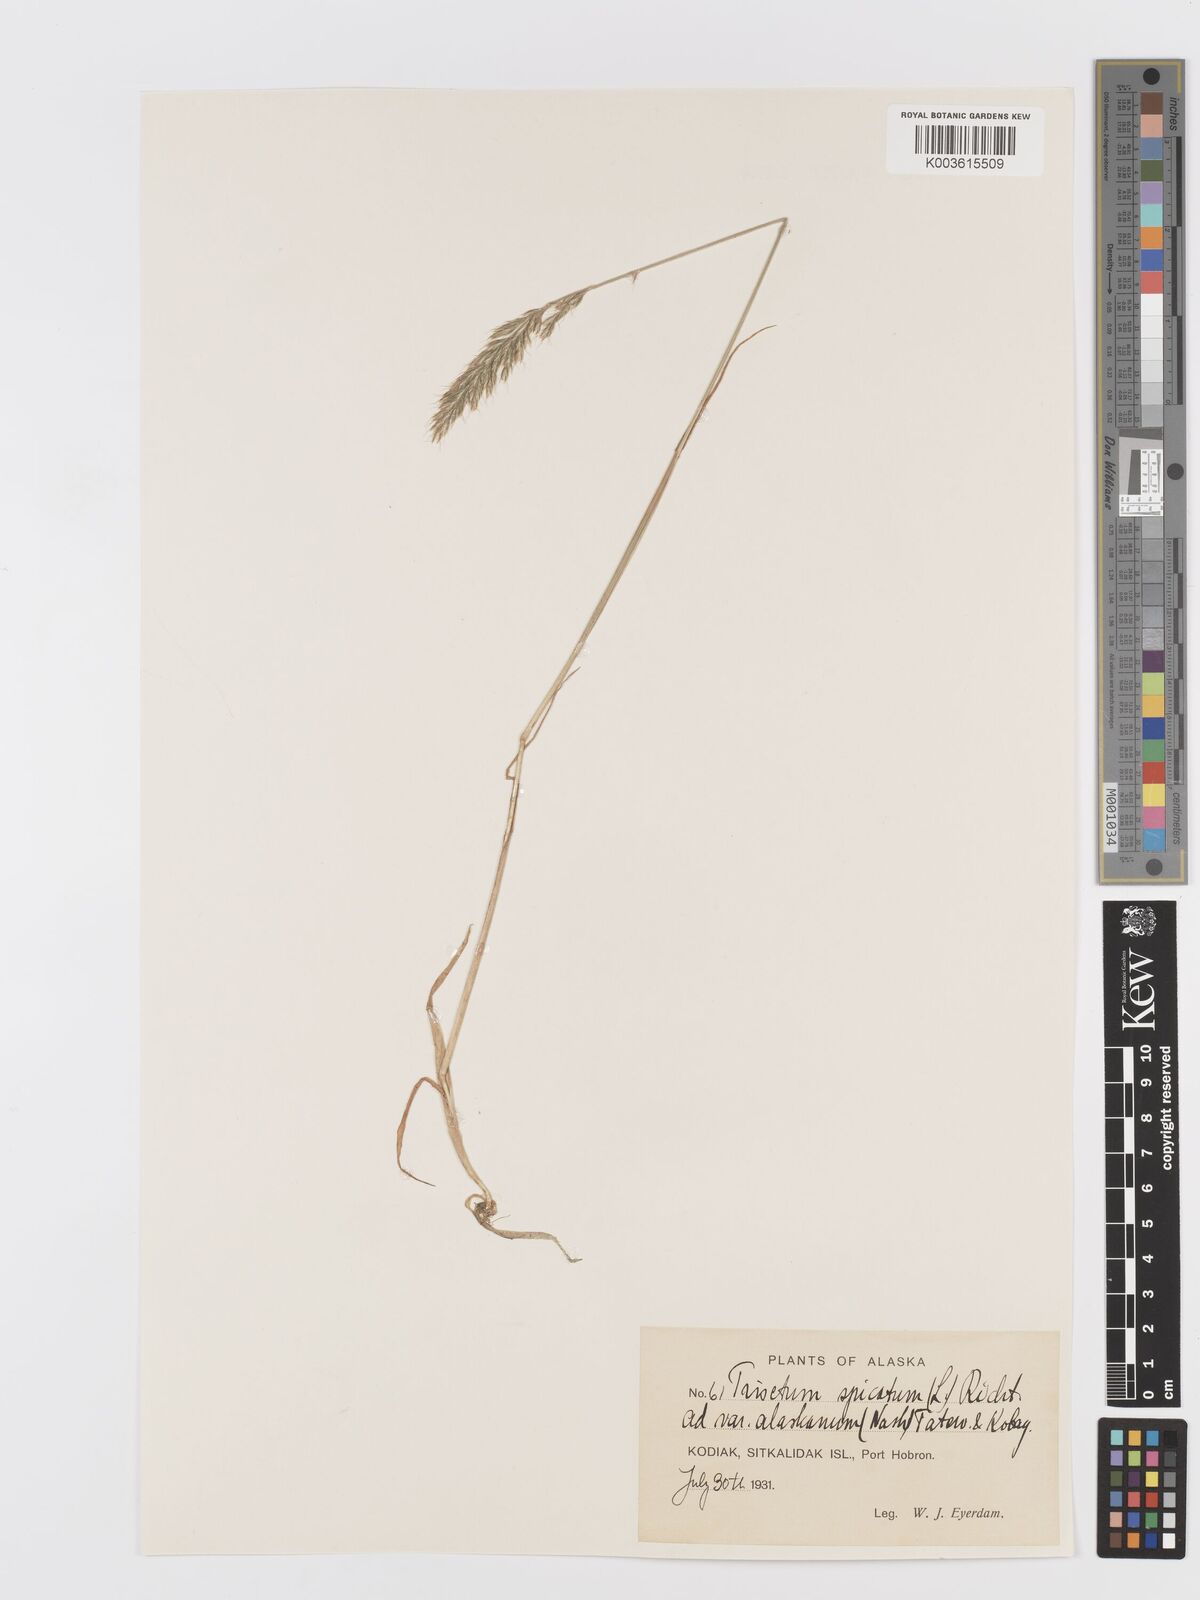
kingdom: Plantae
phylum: Tracheophyta
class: Liliopsida
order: Poales
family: Poaceae
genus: Koeleria
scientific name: Koeleria spicata
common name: Mountain trisetum
